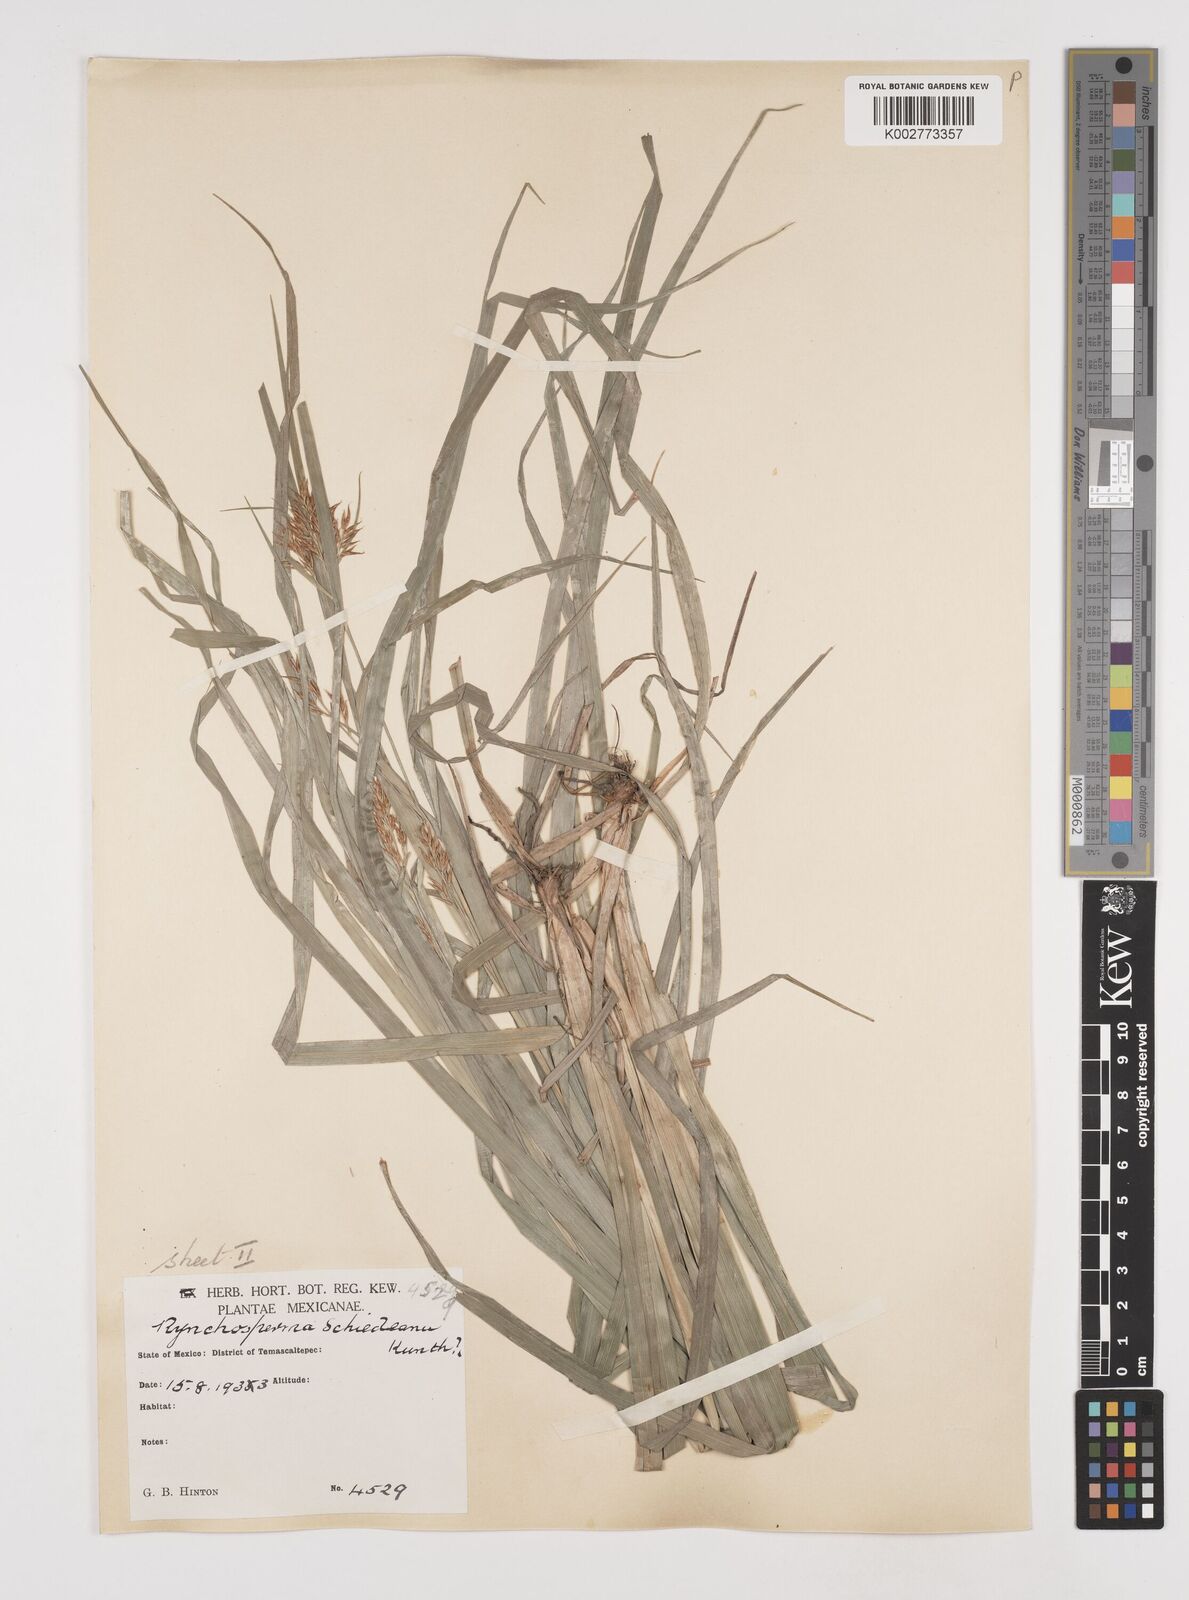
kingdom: Plantae
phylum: Tracheophyta
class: Liliopsida
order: Poales
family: Cyperaceae
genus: Rhynchospora
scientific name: Rhynchospora schiedeana
